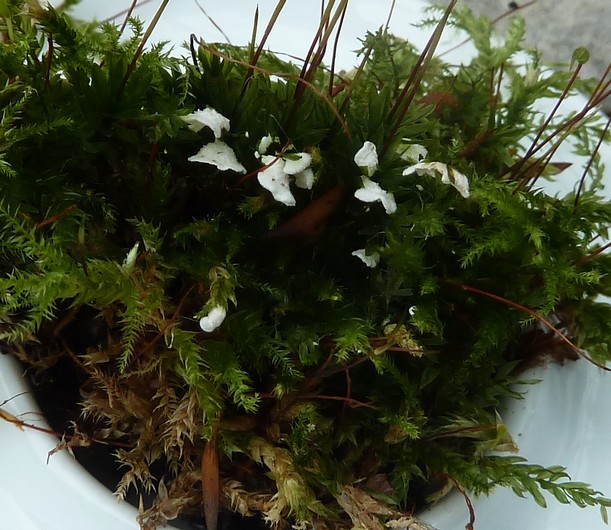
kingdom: Fungi
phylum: Basidiomycota
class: Agaricomycetes
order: Agaricales
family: Tricholomataceae
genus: Rimbachia
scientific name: Rimbachia arachnoidea
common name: Almindelig mosskål
